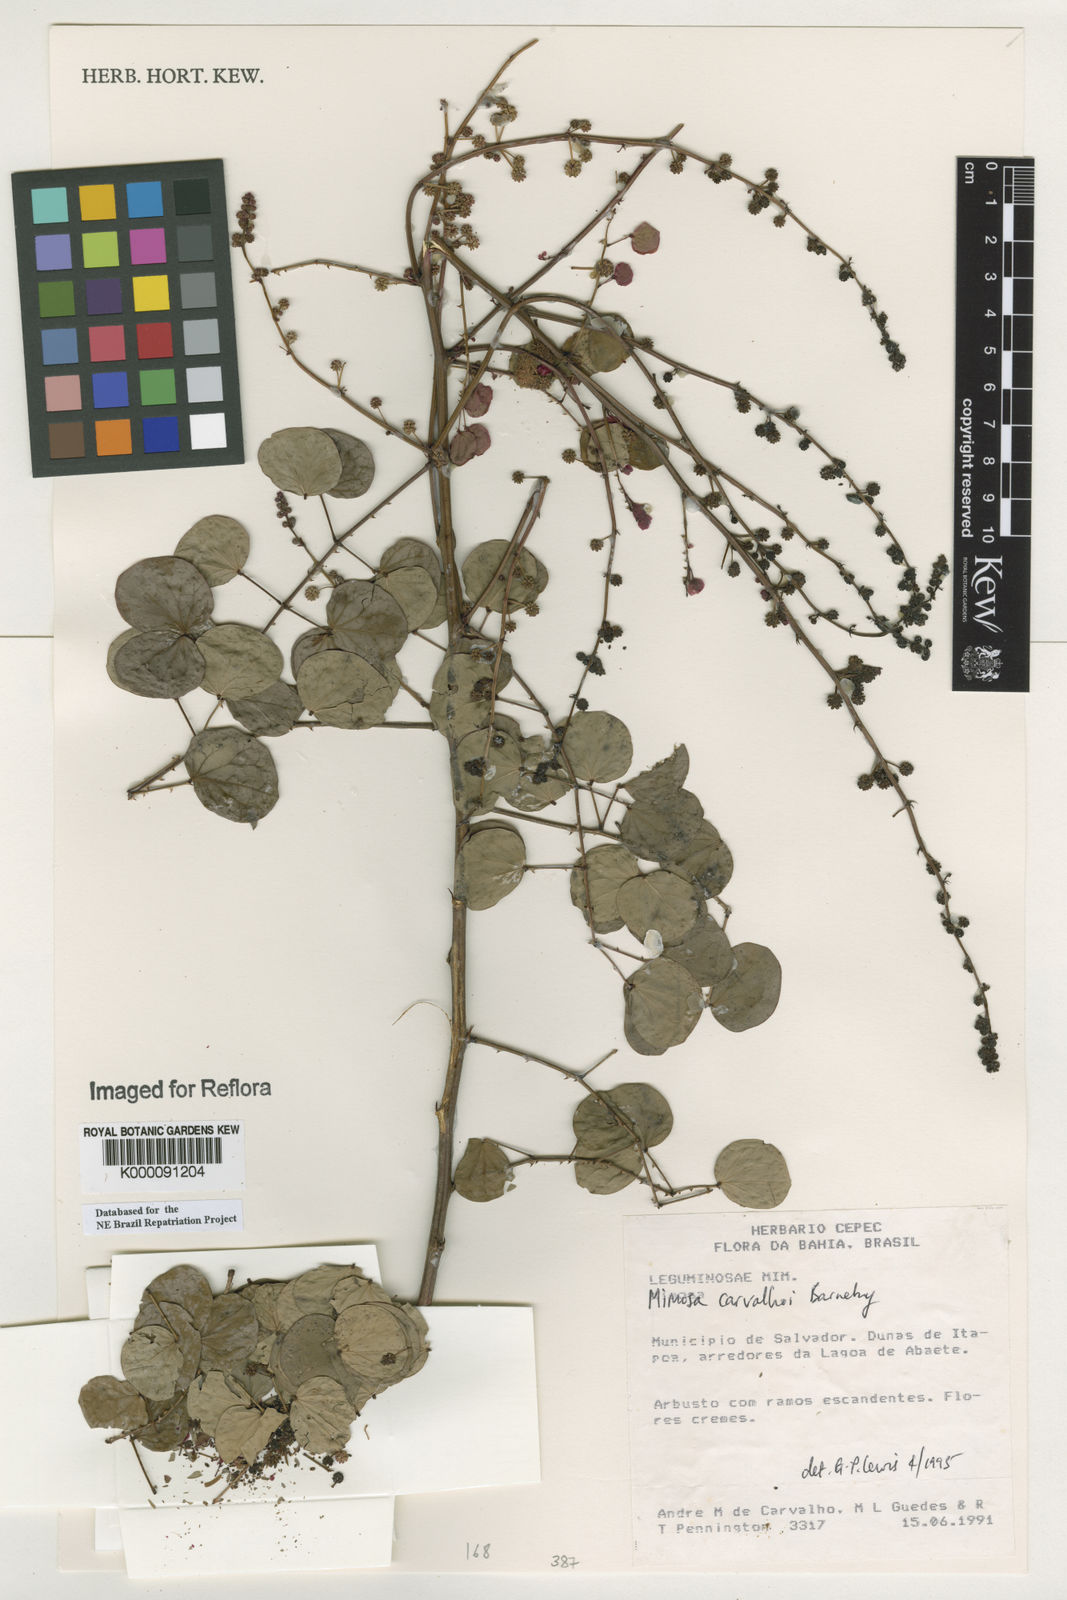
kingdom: Plantae
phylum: Tracheophyta
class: Magnoliopsida
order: Fabales
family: Fabaceae
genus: Mimosa
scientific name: Mimosa carvalhoi
